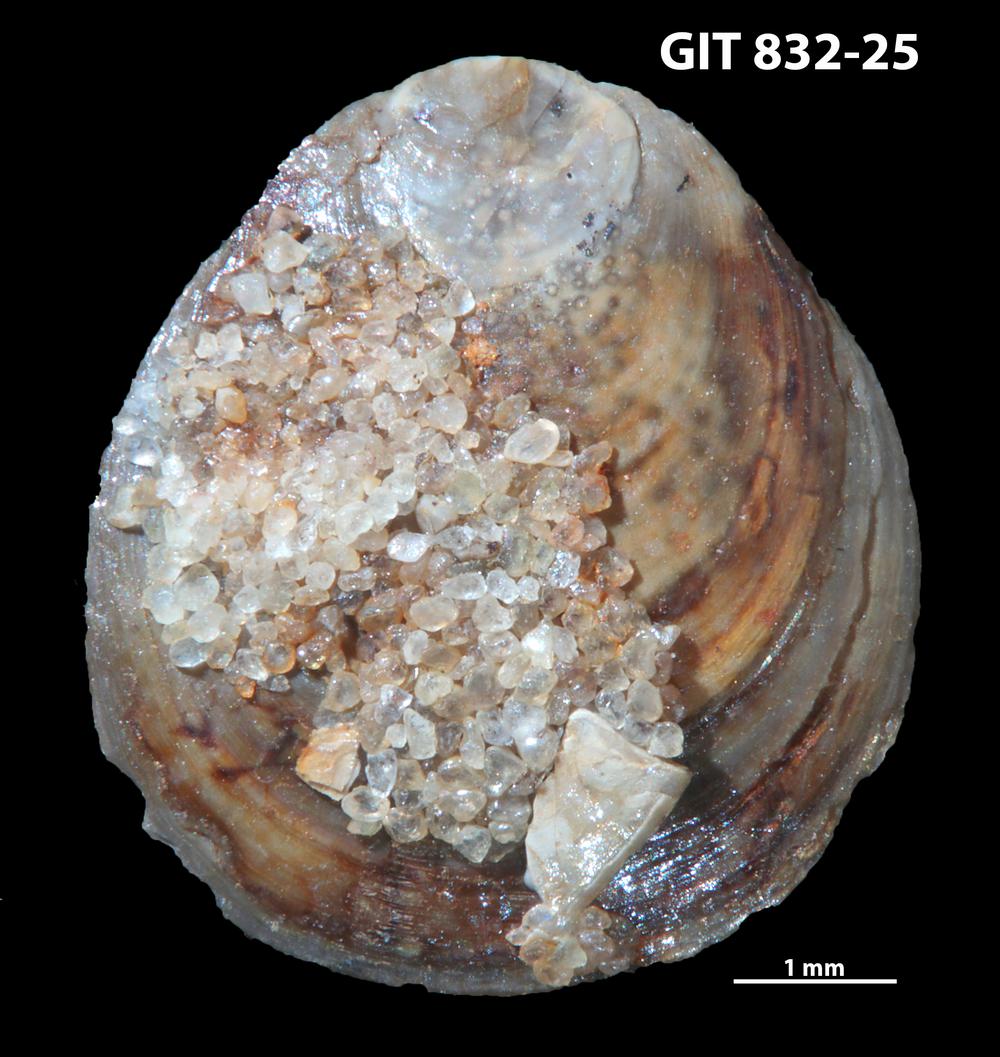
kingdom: Animalia
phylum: Brachiopoda
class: Lingulata
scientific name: Lingulata
